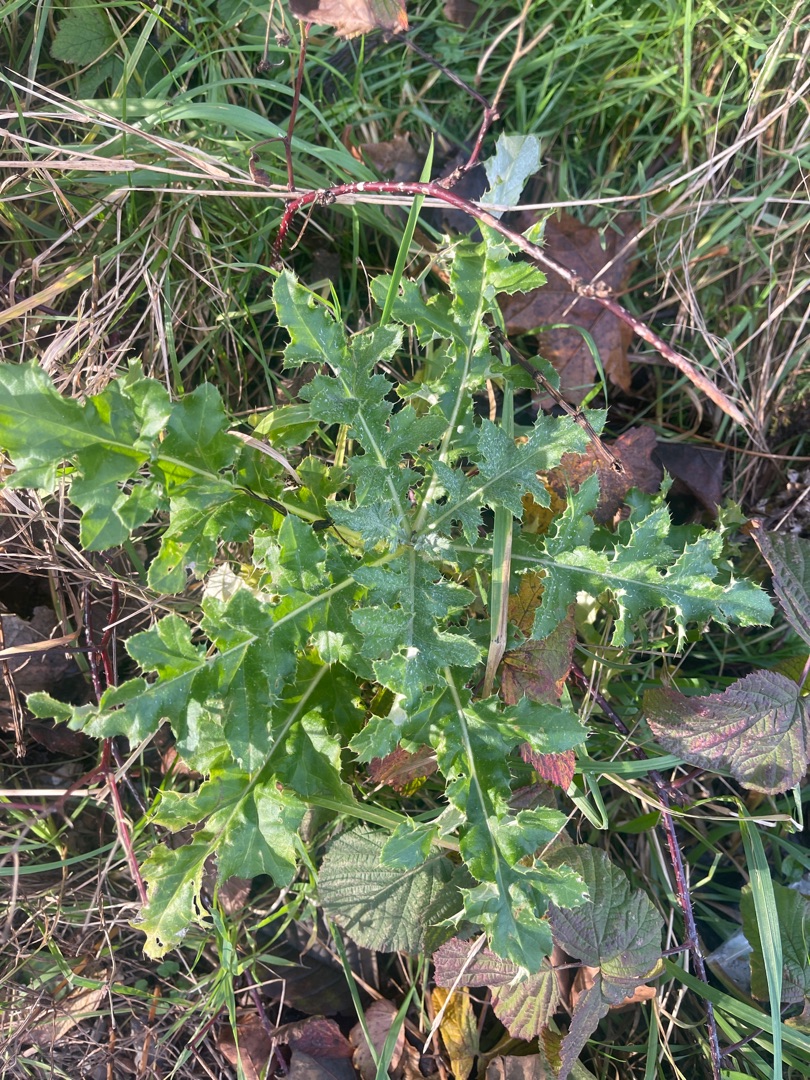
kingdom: Plantae
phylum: Tracheophyta
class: Magnoliopsida
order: Asterales
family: Asteraceae
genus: Cirsium
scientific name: Cirsium arvense
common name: Ager-tidsel
